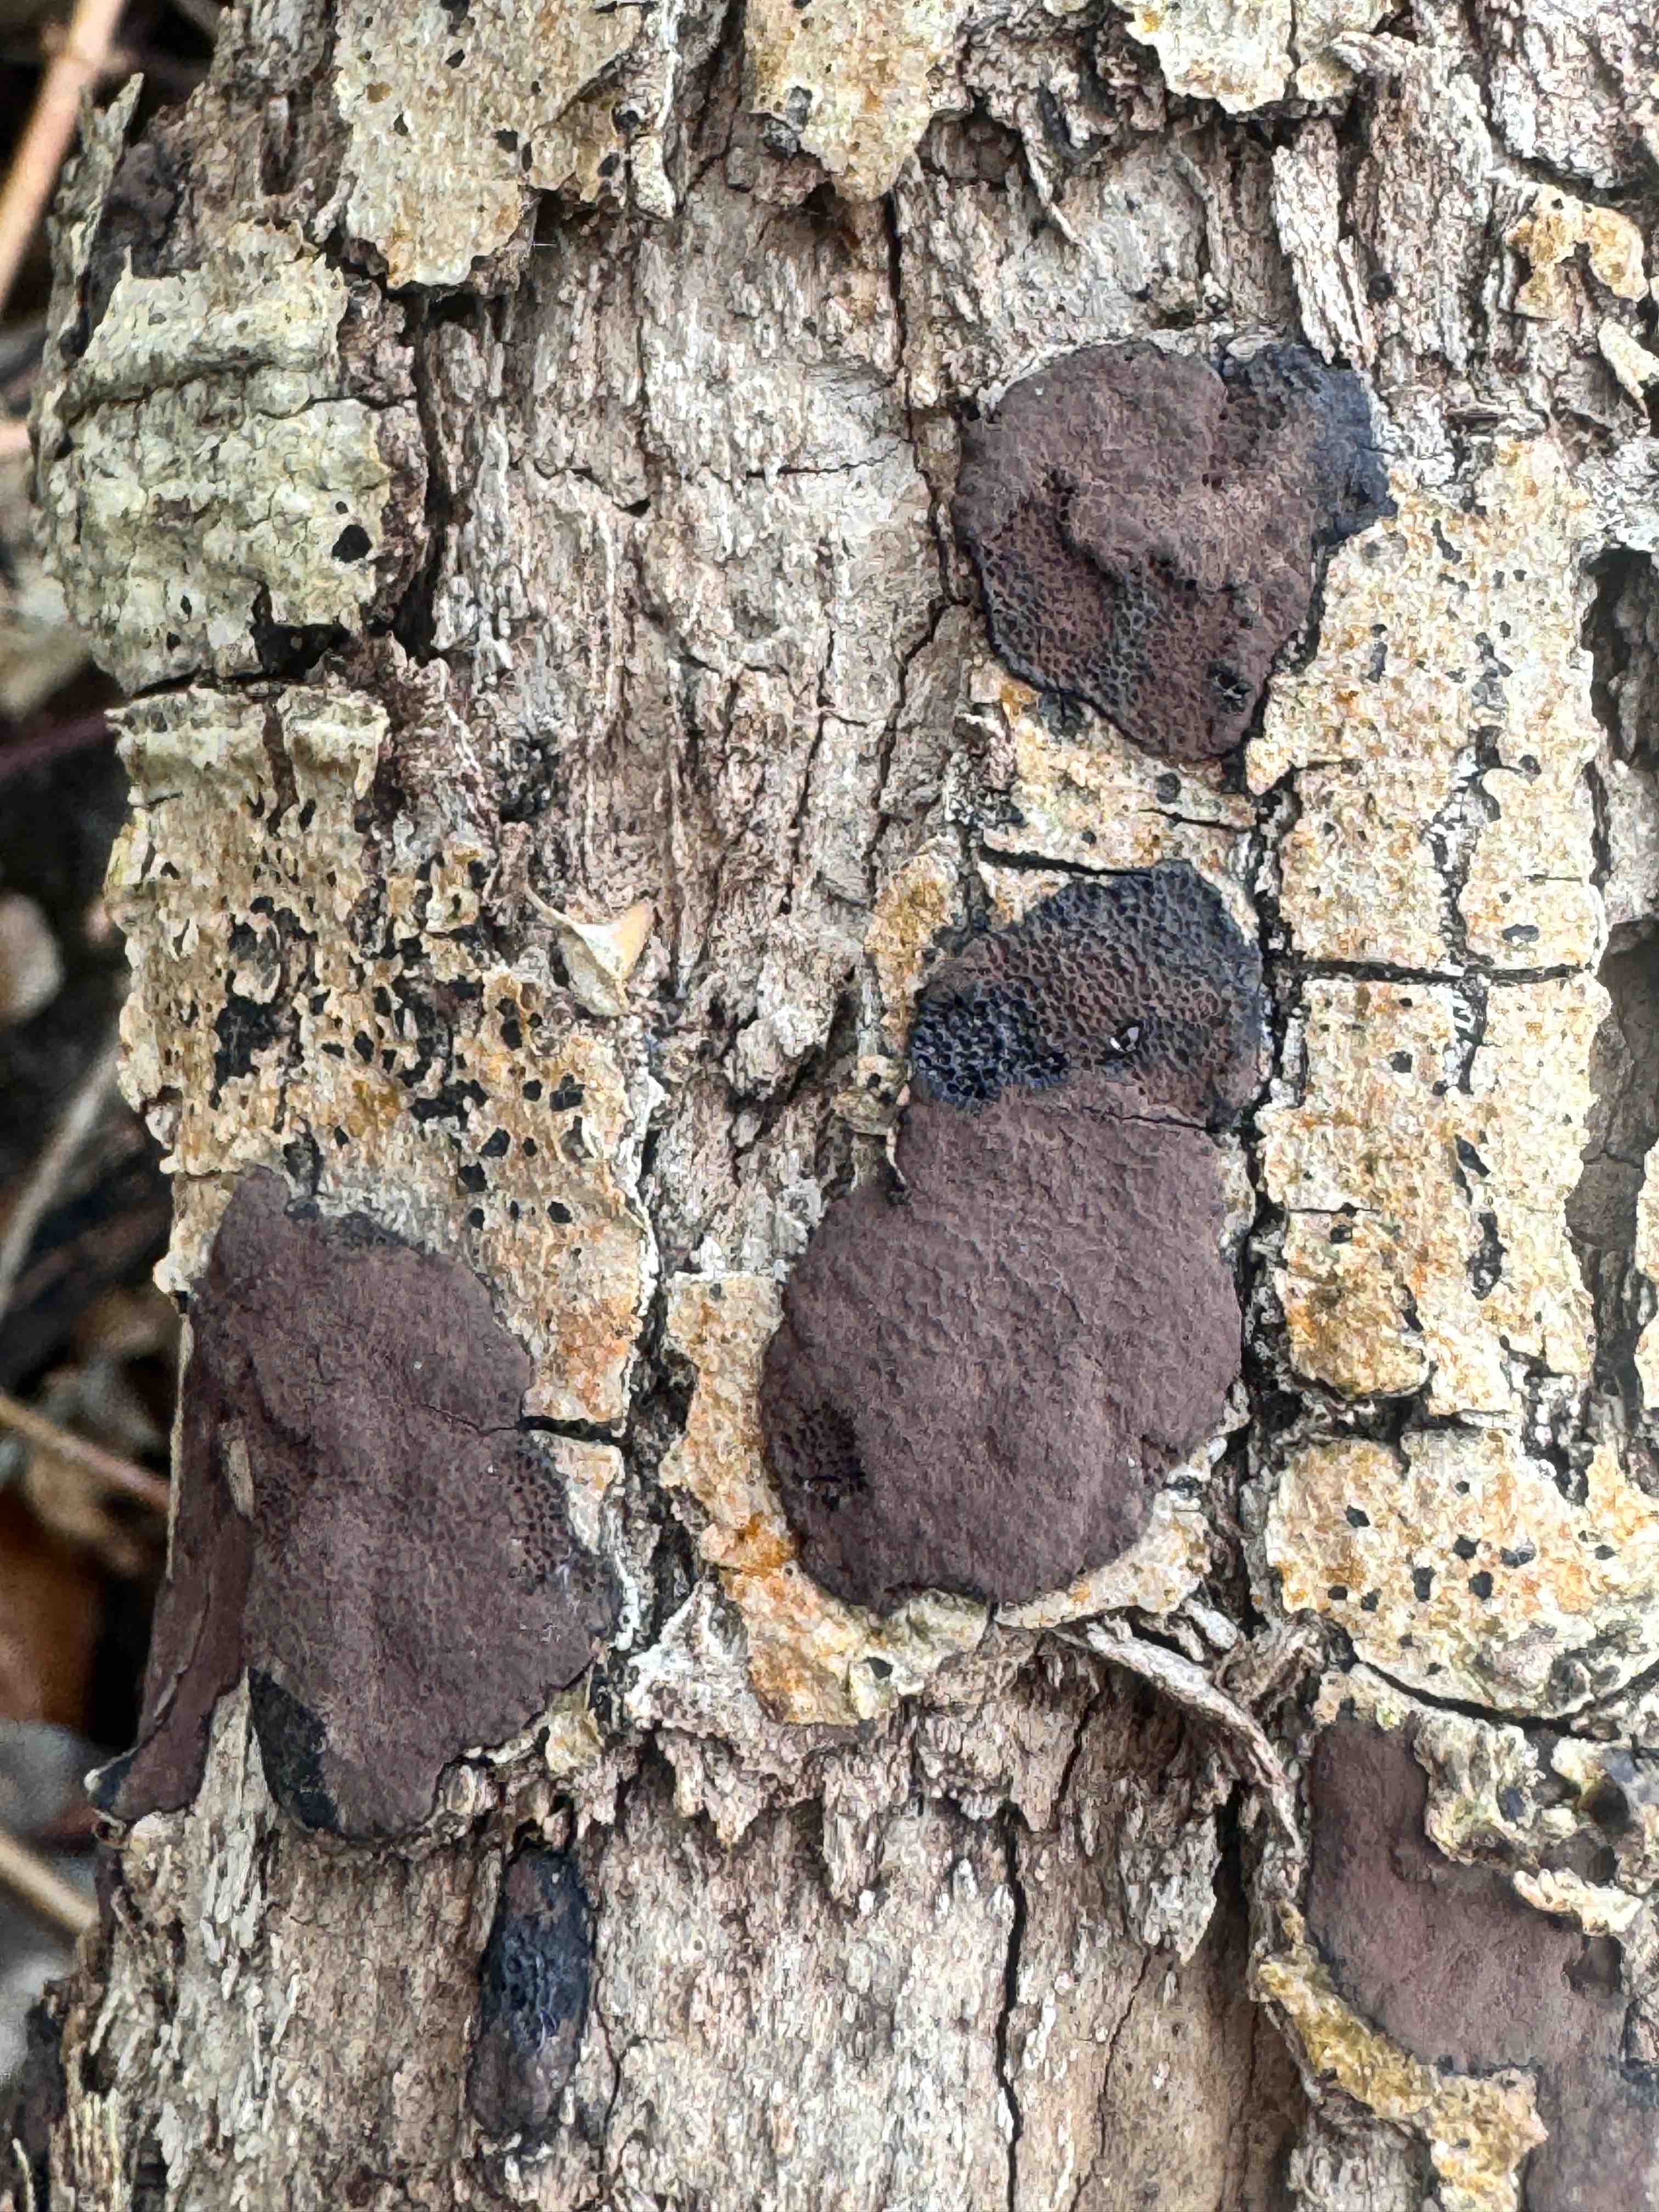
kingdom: Fungi
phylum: Ascomycota
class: Sordariomycetes
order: Xylariales
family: Hypoxylaceae
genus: Hypoxylon
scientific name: Hypoxylon petriniae
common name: nedsænket kulbær
